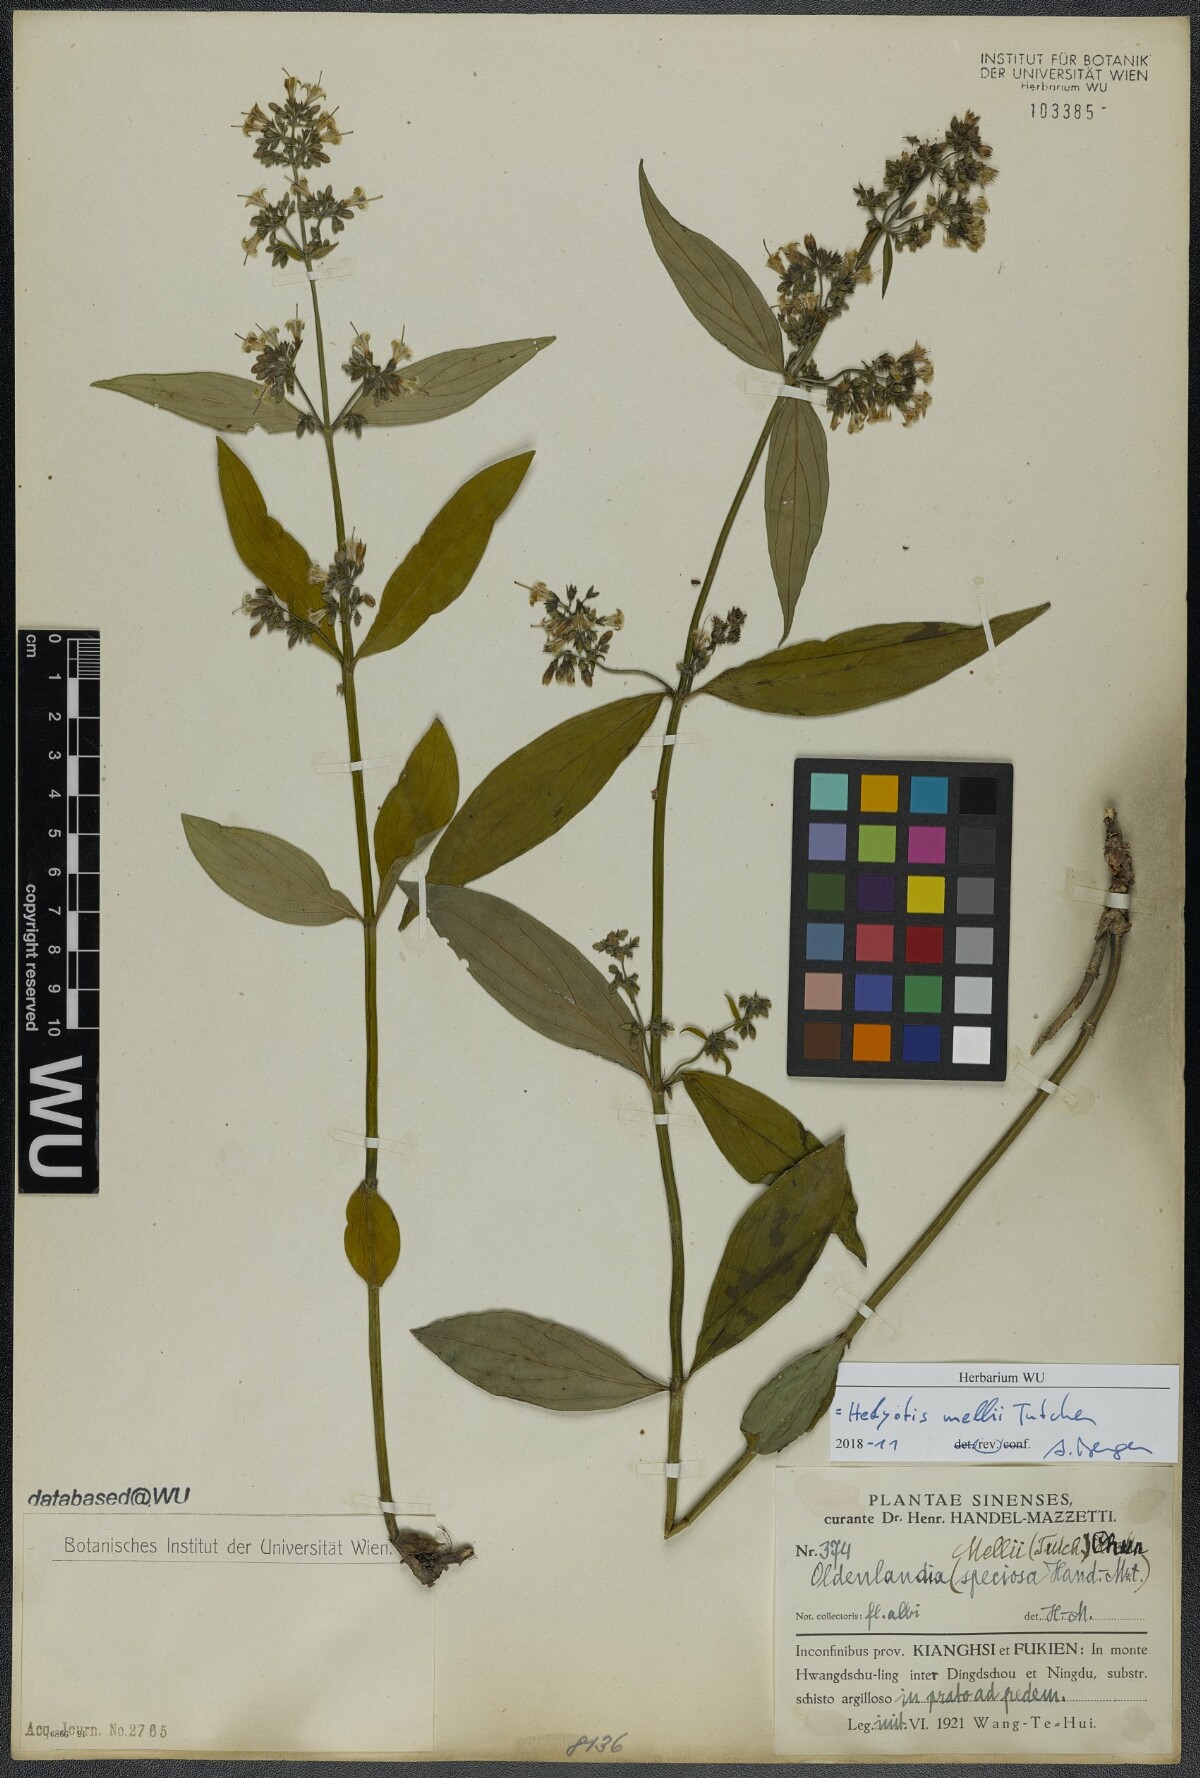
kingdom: Plantae
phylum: Tracheophyta
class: Magnoliopsida
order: Gentianales
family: Rubiaceae
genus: Hedyotis
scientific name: Hedyotis matthewii
